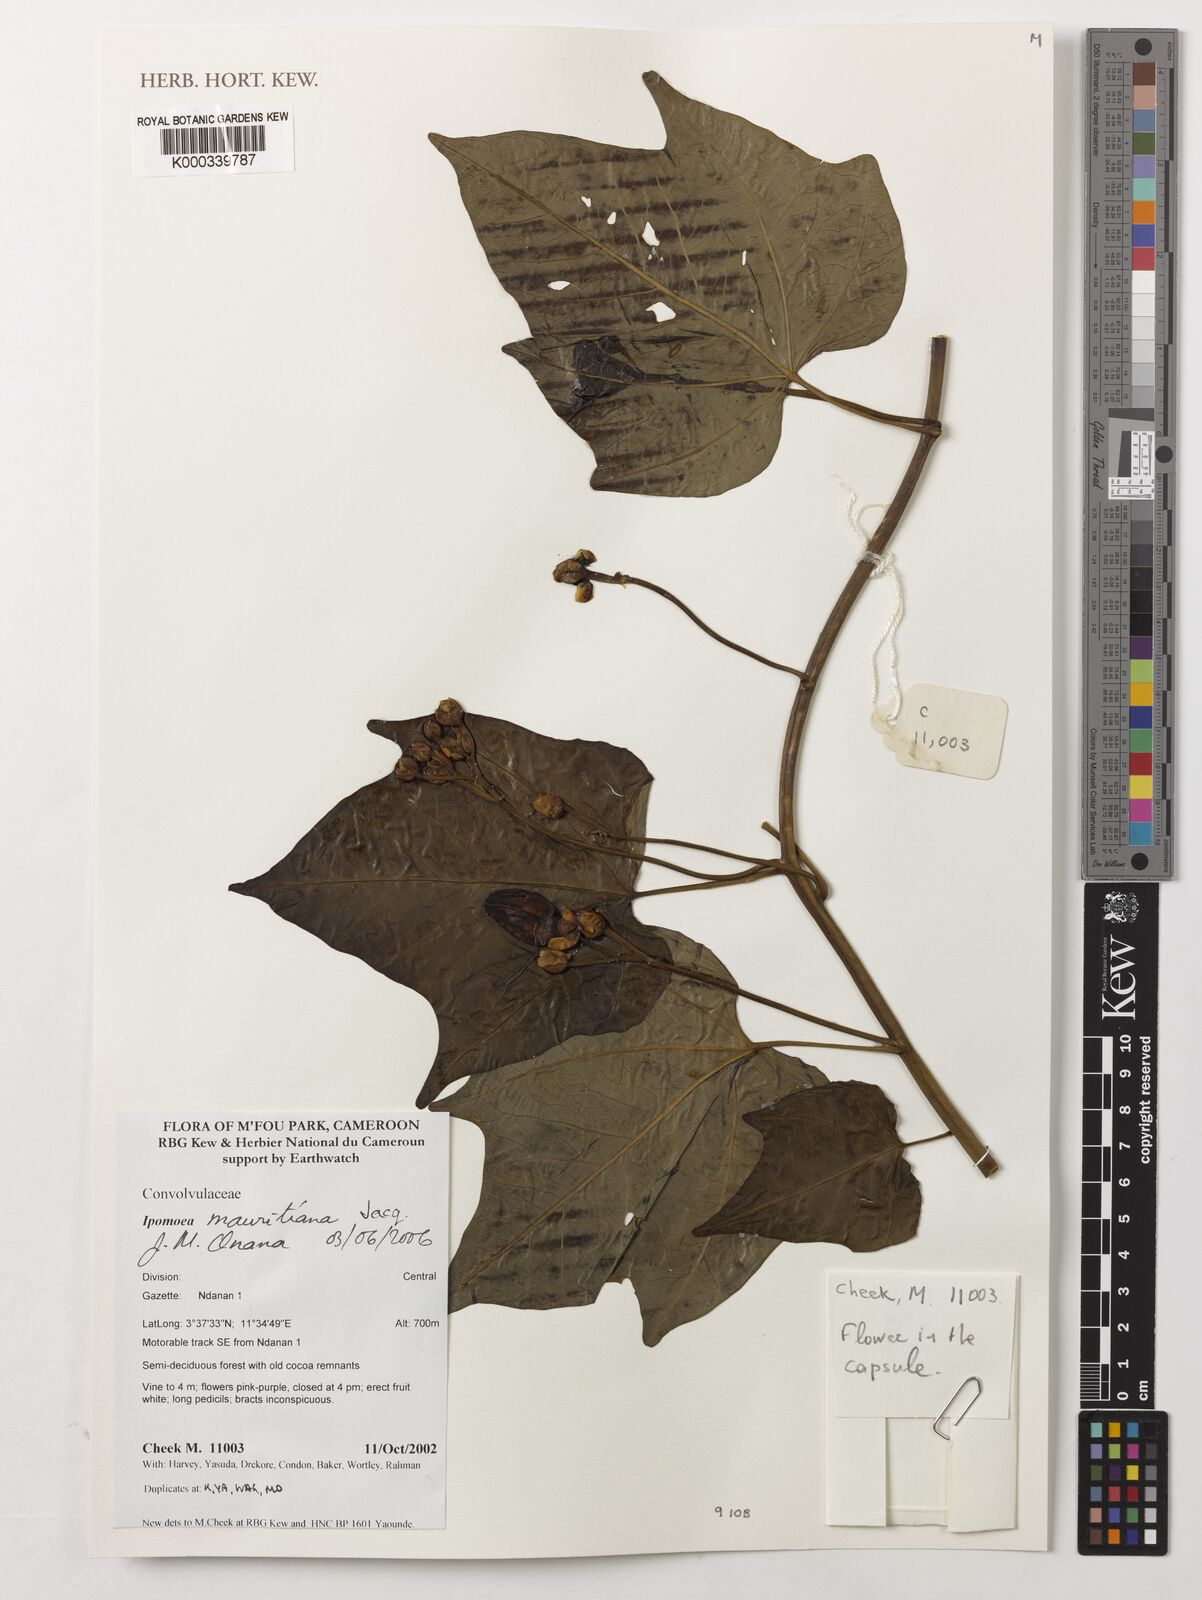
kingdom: Plantae
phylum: Tracheophyta
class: Magnoliopsida
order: Solanales
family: Convolvulaceae
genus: Ipomoea
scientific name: Ipomoea mauritiana
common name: Mauritanian convolvulus
